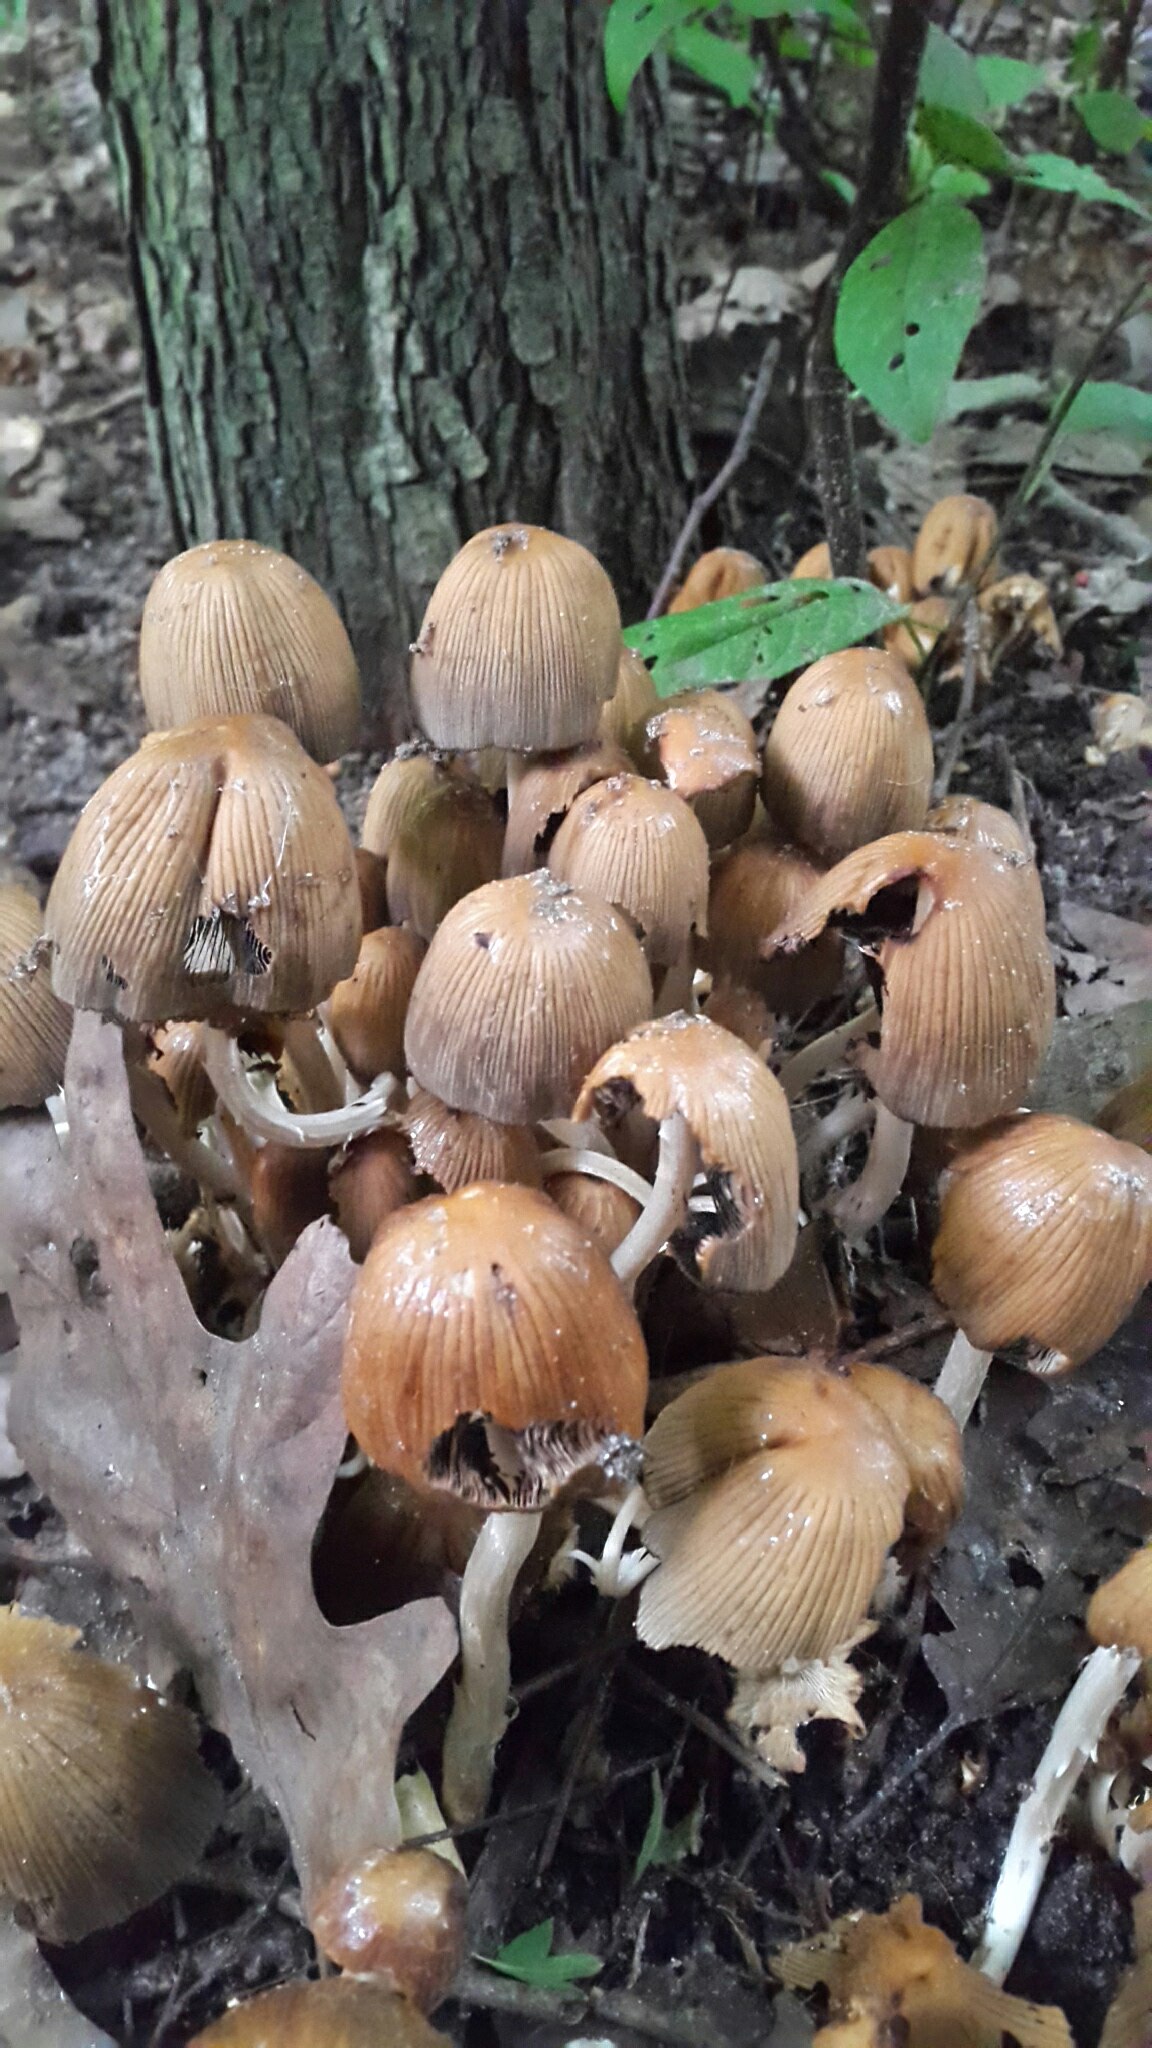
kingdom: Fungi
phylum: Basidiomycota
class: Agaricomycetes
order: Agaricales
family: Psathyrellaceae
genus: Coprinellus
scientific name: Coprinellus micaceus
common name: glimmer-blækhat
